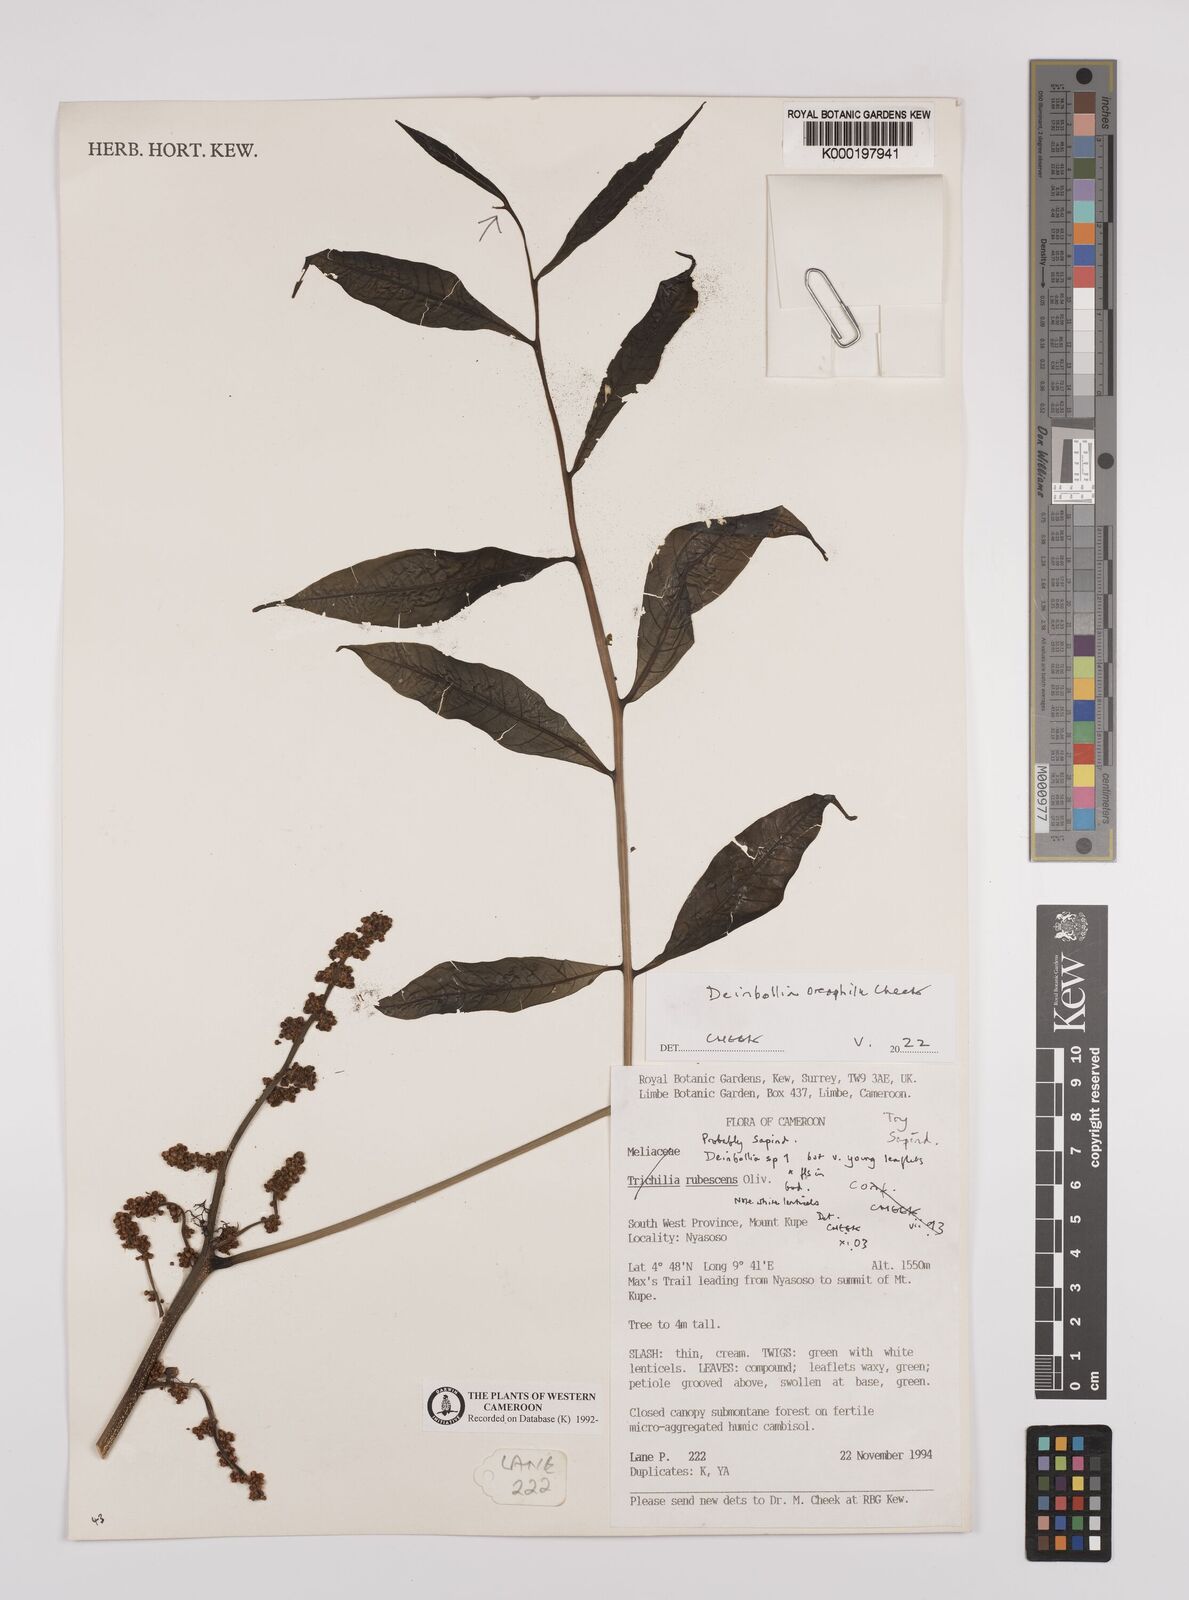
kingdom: Plantae
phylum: Tracheophyta
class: Magnoliopsida
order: Sapindales
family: Sapindaceae
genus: Deinbollia
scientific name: Deinbollia oreophila
